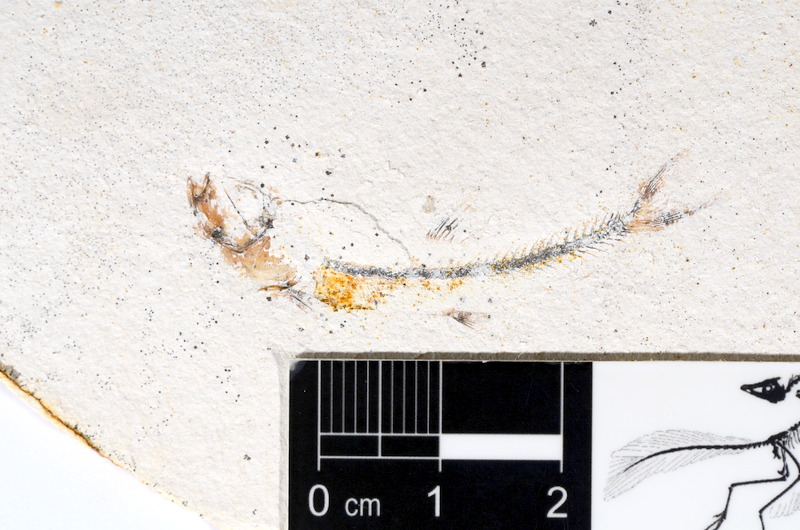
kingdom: Animalia
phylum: Chordata
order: Salmoniformes
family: Orthogonikleithridae
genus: Orthogonikleithrus
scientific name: Orthogonikleithrus hoelli
